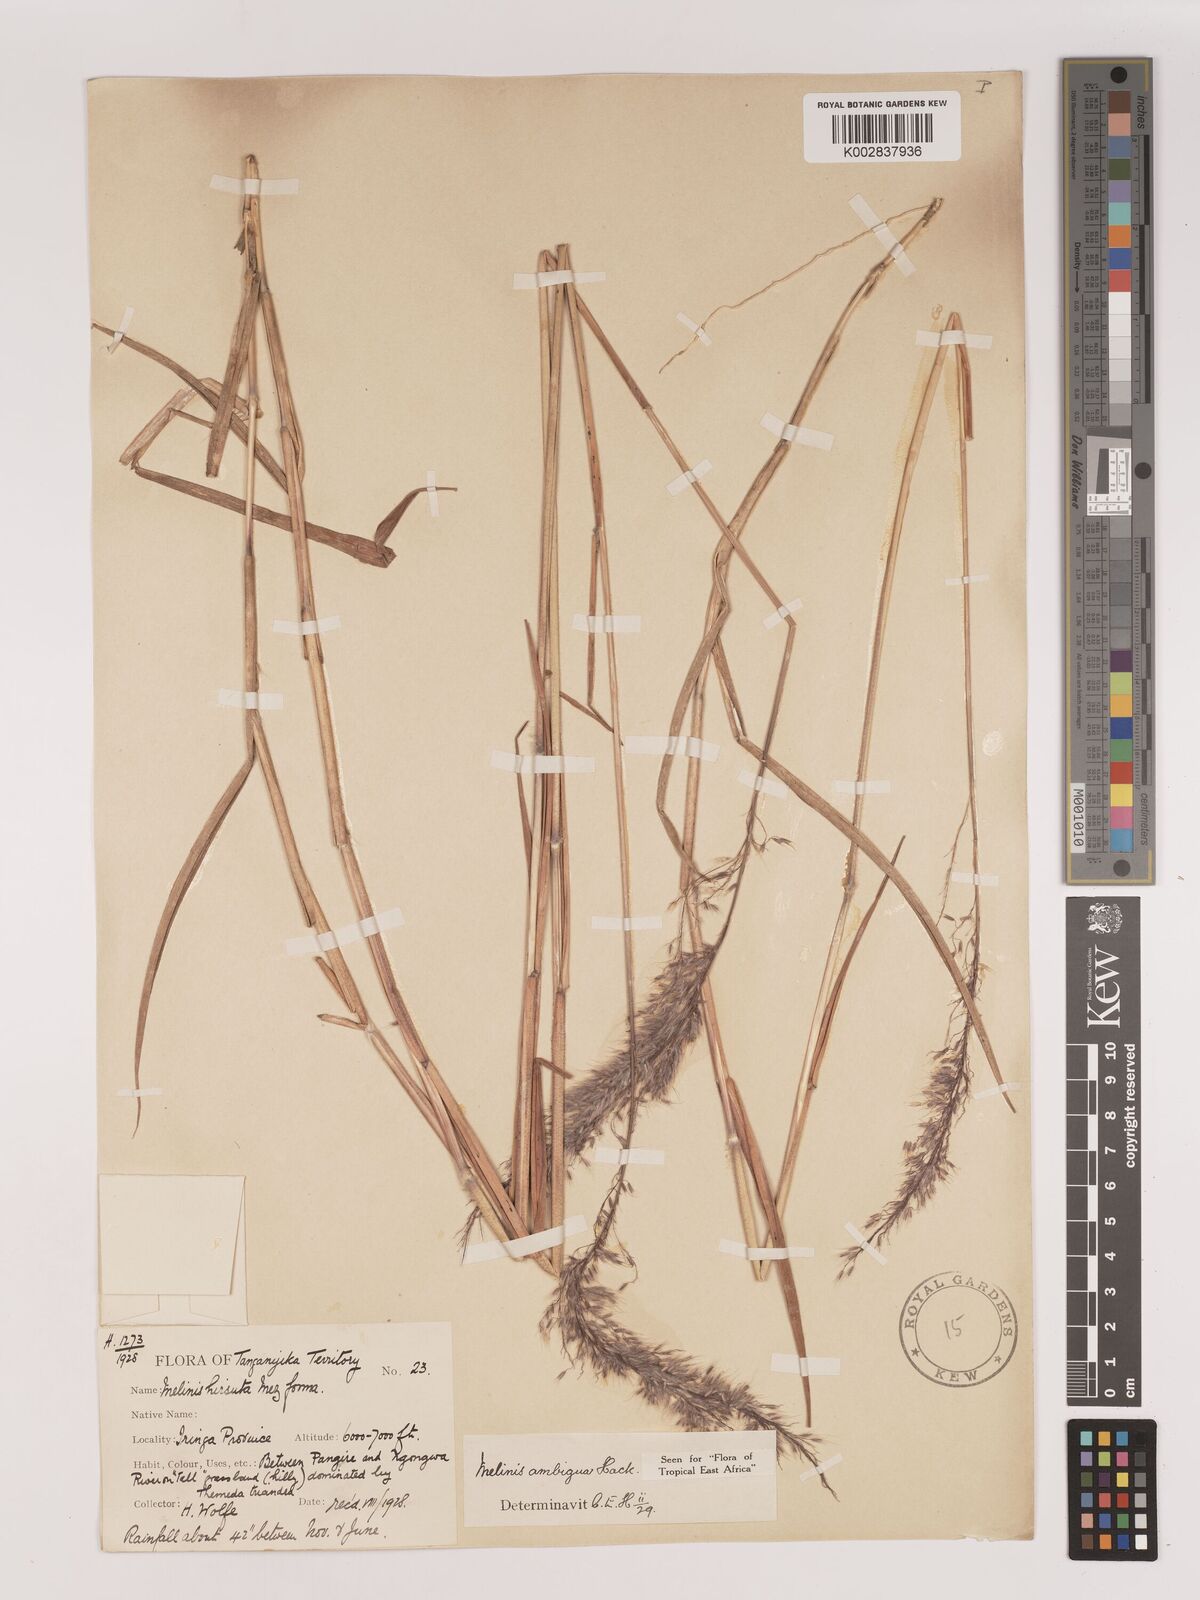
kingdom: Plantae
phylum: Tracheophyta
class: Liliopsida
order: Poales
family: Poaceae
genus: Melinis
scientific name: Melinis ambigua
